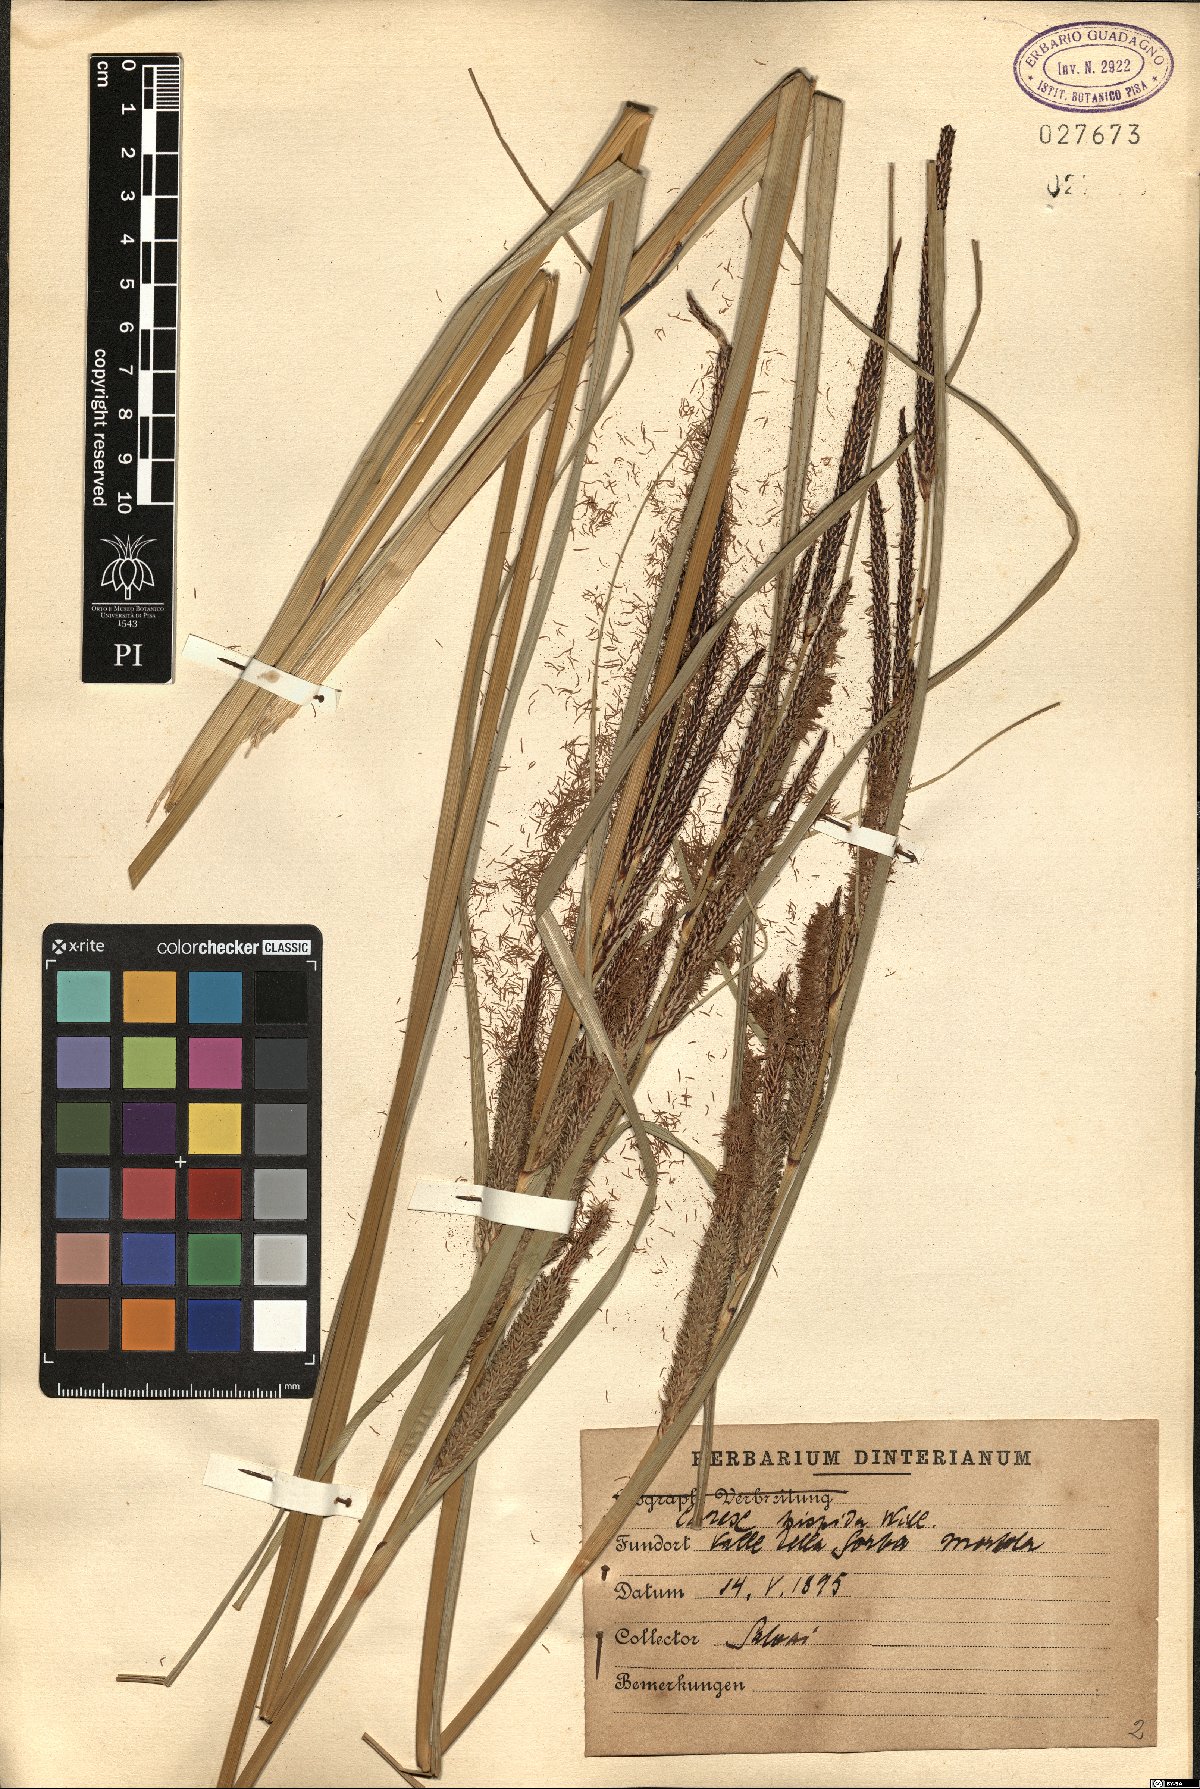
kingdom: Plantae
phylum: Tracheophyta
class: Liliopsida
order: Poales
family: Cyperaceae
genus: Carex
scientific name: Carex hispida
